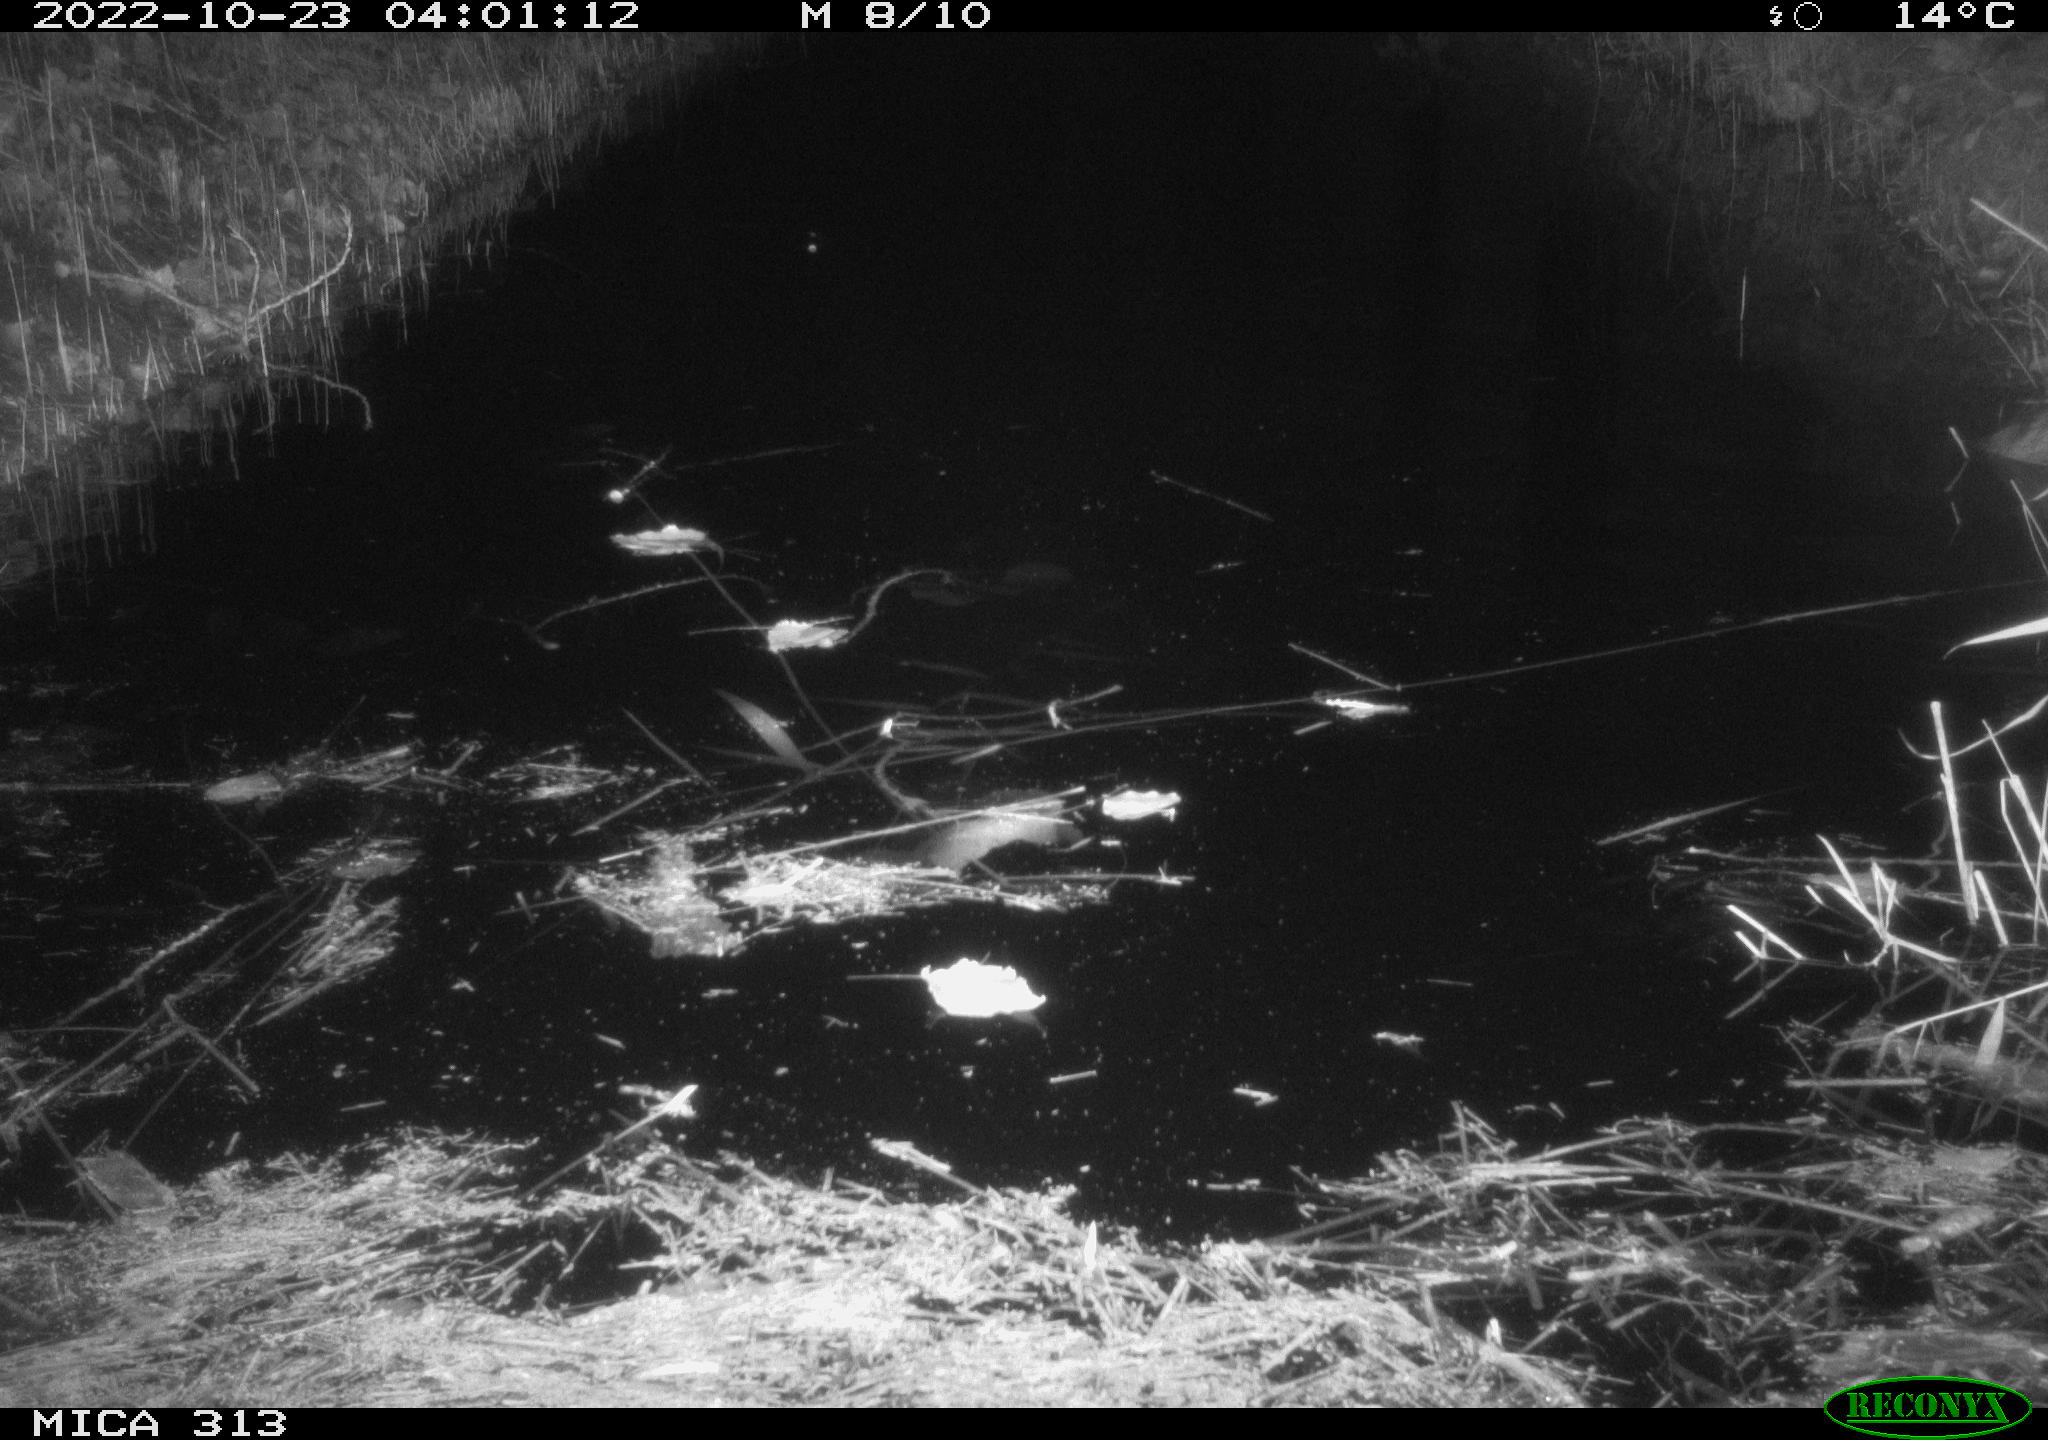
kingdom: Animalia
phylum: Chordata
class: Mammalia
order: Rodentia
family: Muridae
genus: Rattus
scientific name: Rattus norvegicus
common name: Brown rat
